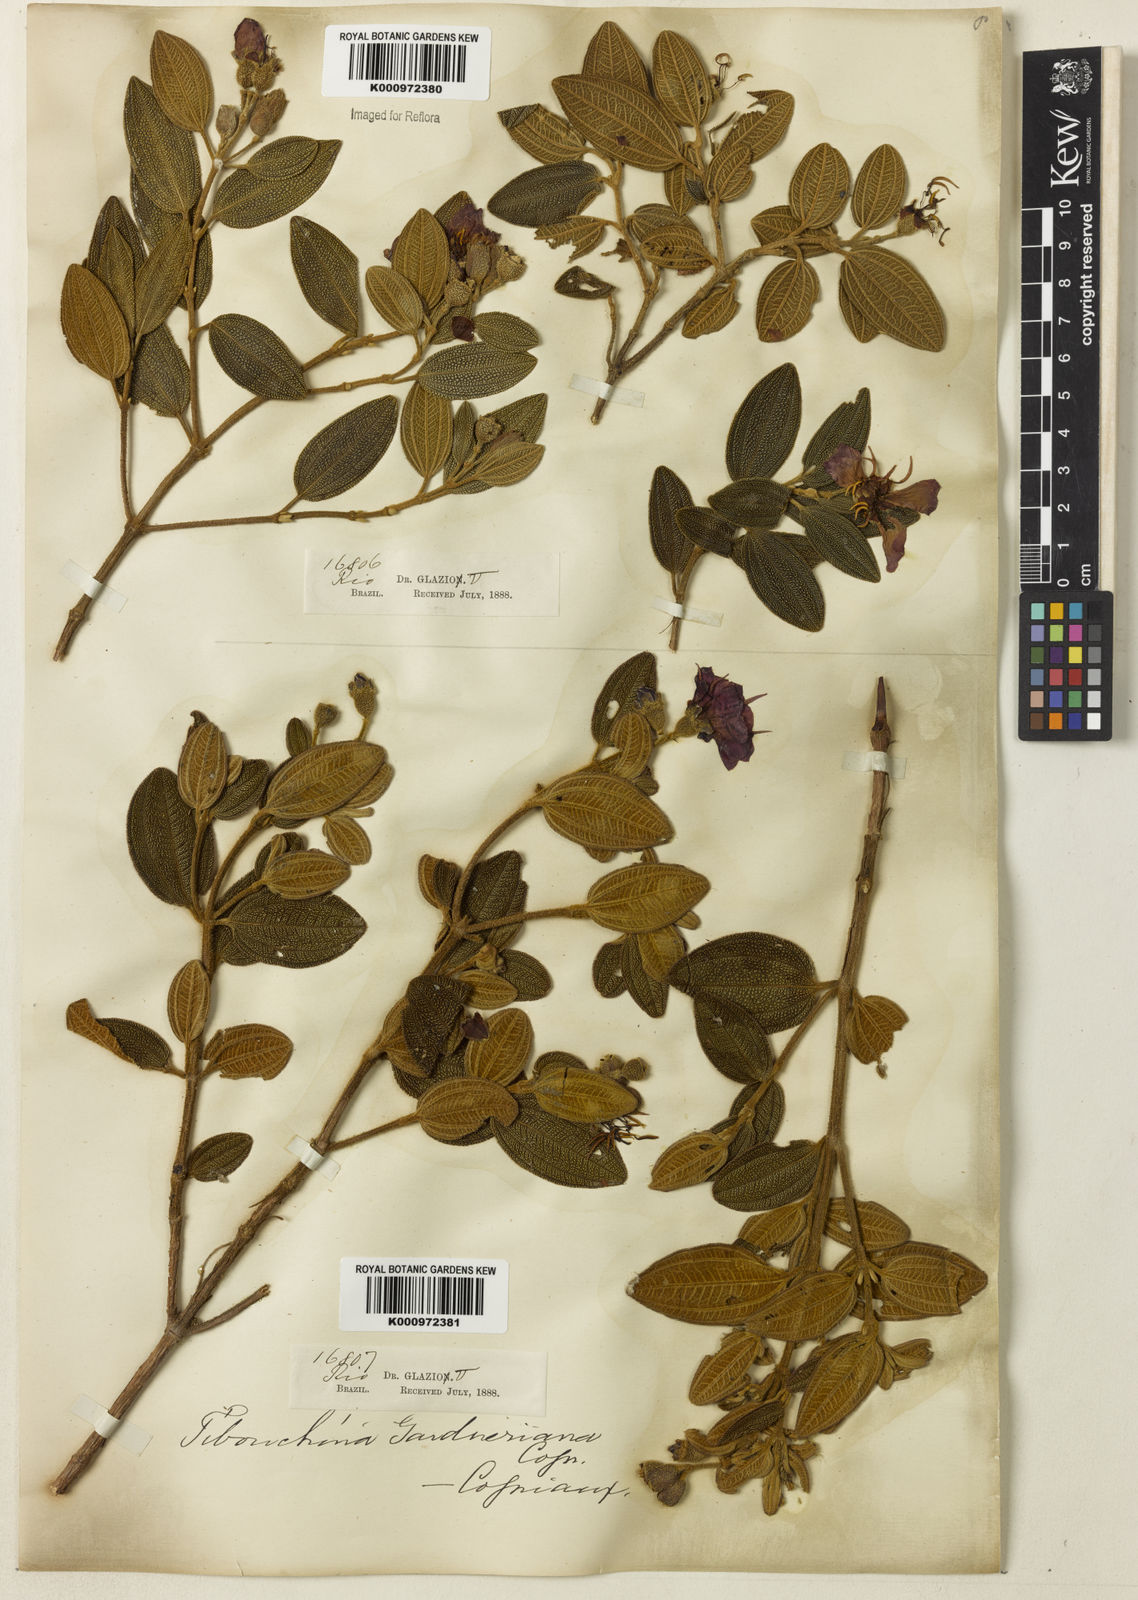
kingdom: Plantae
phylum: Tracheophyta
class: Magnoliopsida
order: Myrtales
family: Melastomataceae
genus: Pleroma
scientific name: Pleroma echinatum
